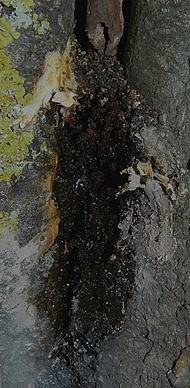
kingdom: Protozoa
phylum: Mycetozoa
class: Myxomycetes
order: Cribrariales
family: Tubiferaceae
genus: Lycogala
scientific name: Lycogala flavofuscum
